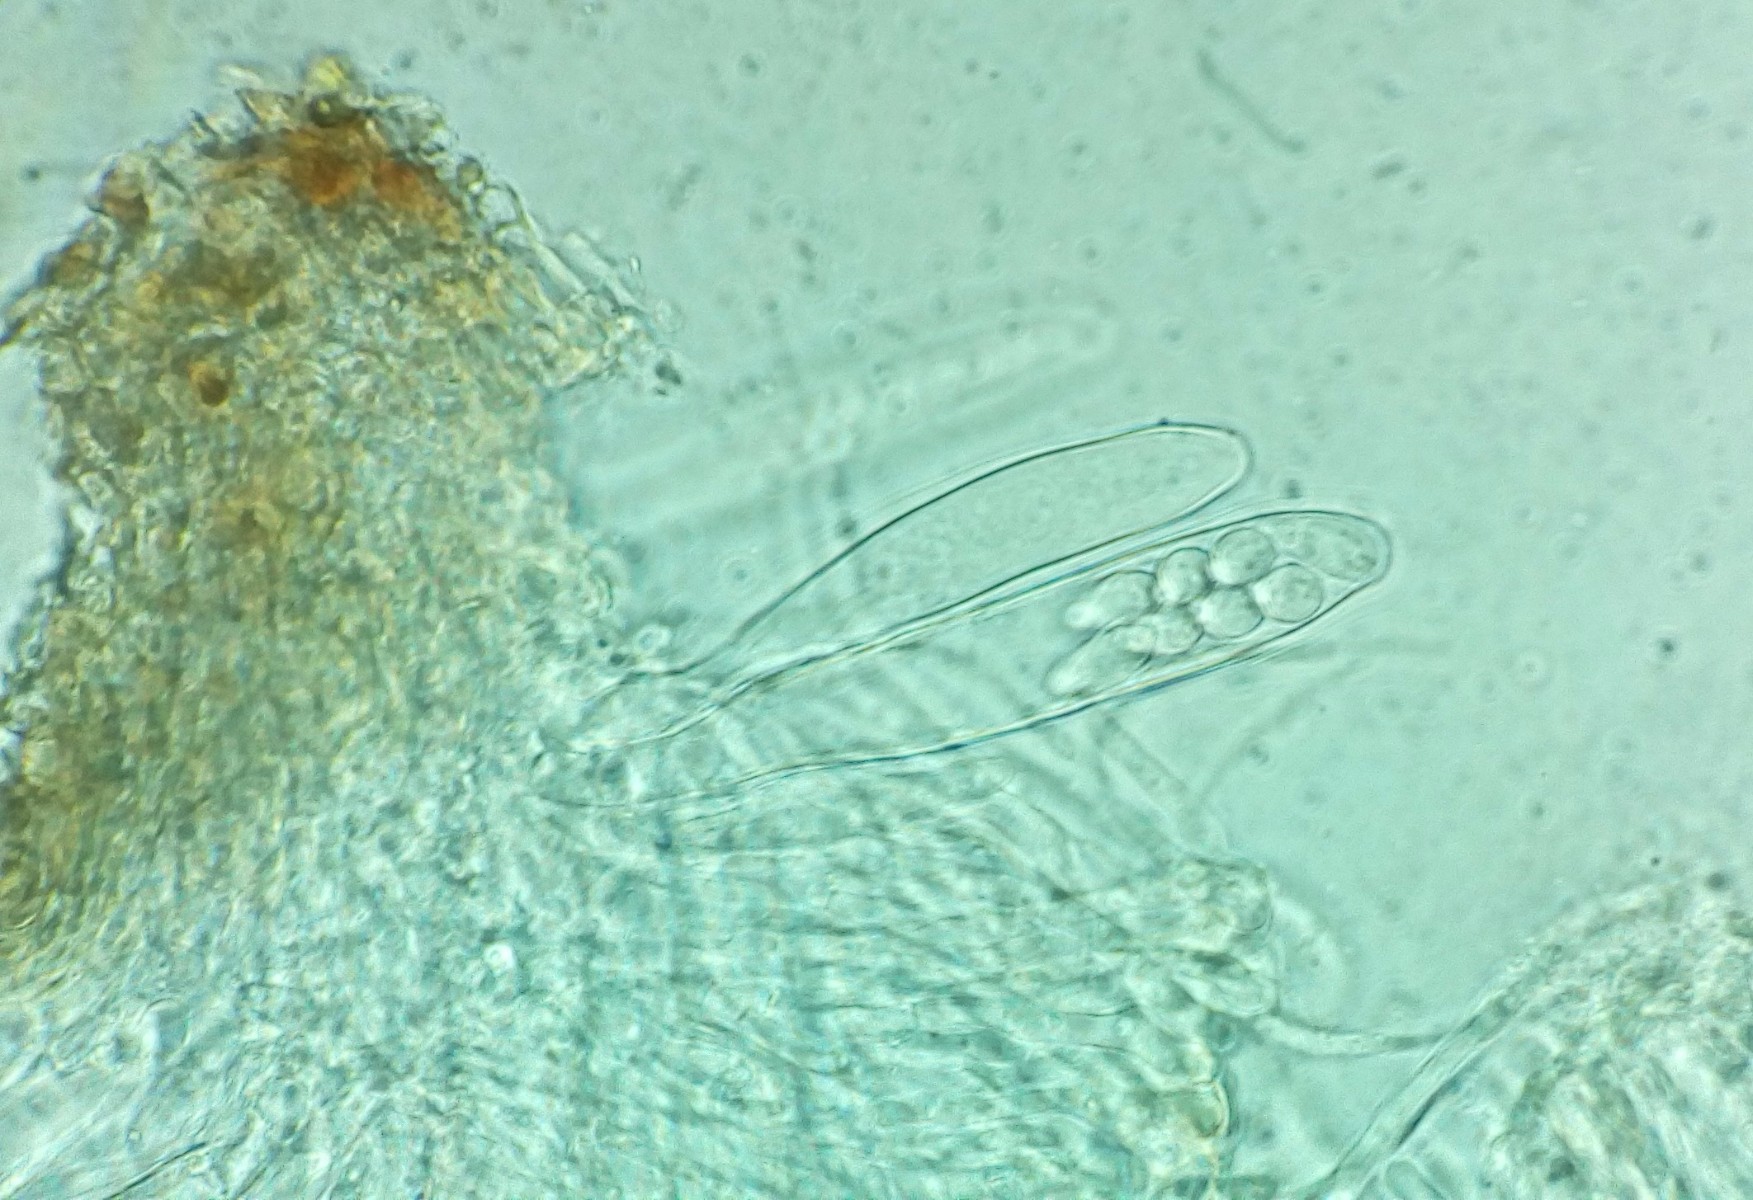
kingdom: Fungi
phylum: Ascomycota
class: Leotiomycetes
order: Helotiales
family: Drepanopezizaceae
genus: Pseudopeziza
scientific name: Pseudopeziza trifolii
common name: kløver-bladskive
